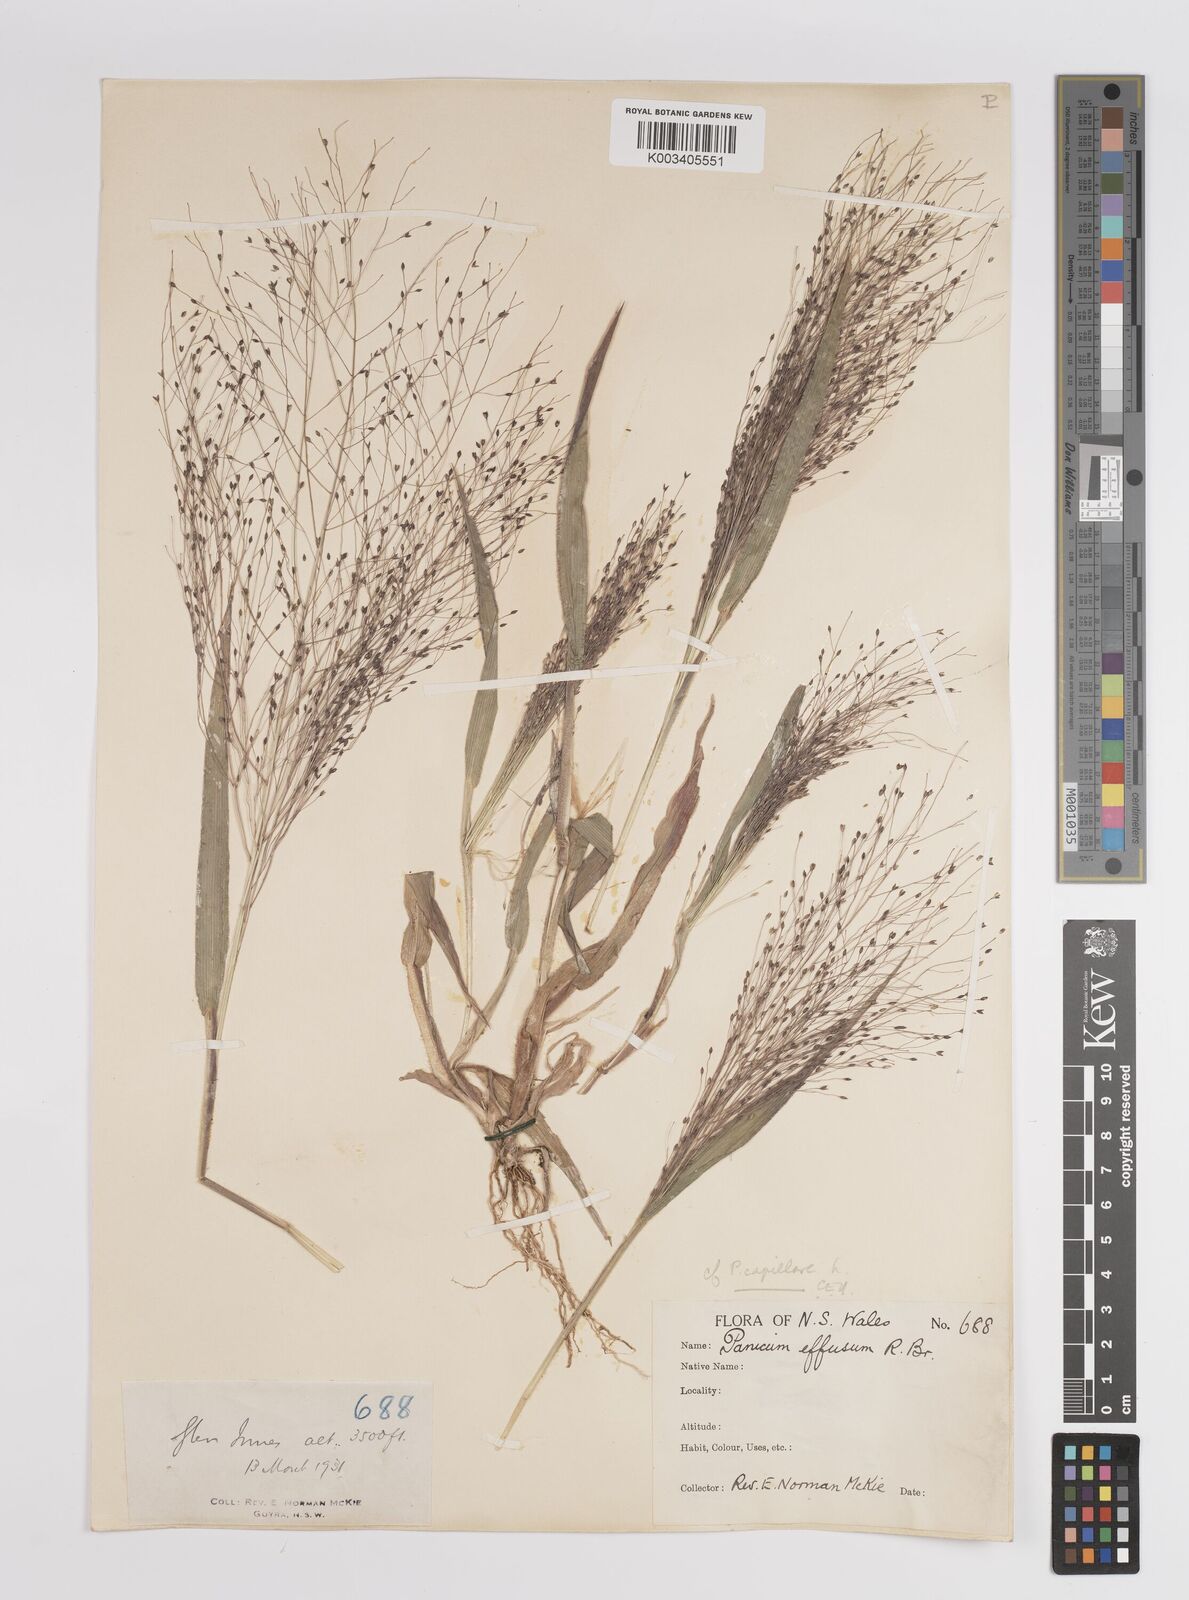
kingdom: Plantae
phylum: Tracheophyta
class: Liliopsida
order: Poales
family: Poaceae
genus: Panicum
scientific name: Panicum
